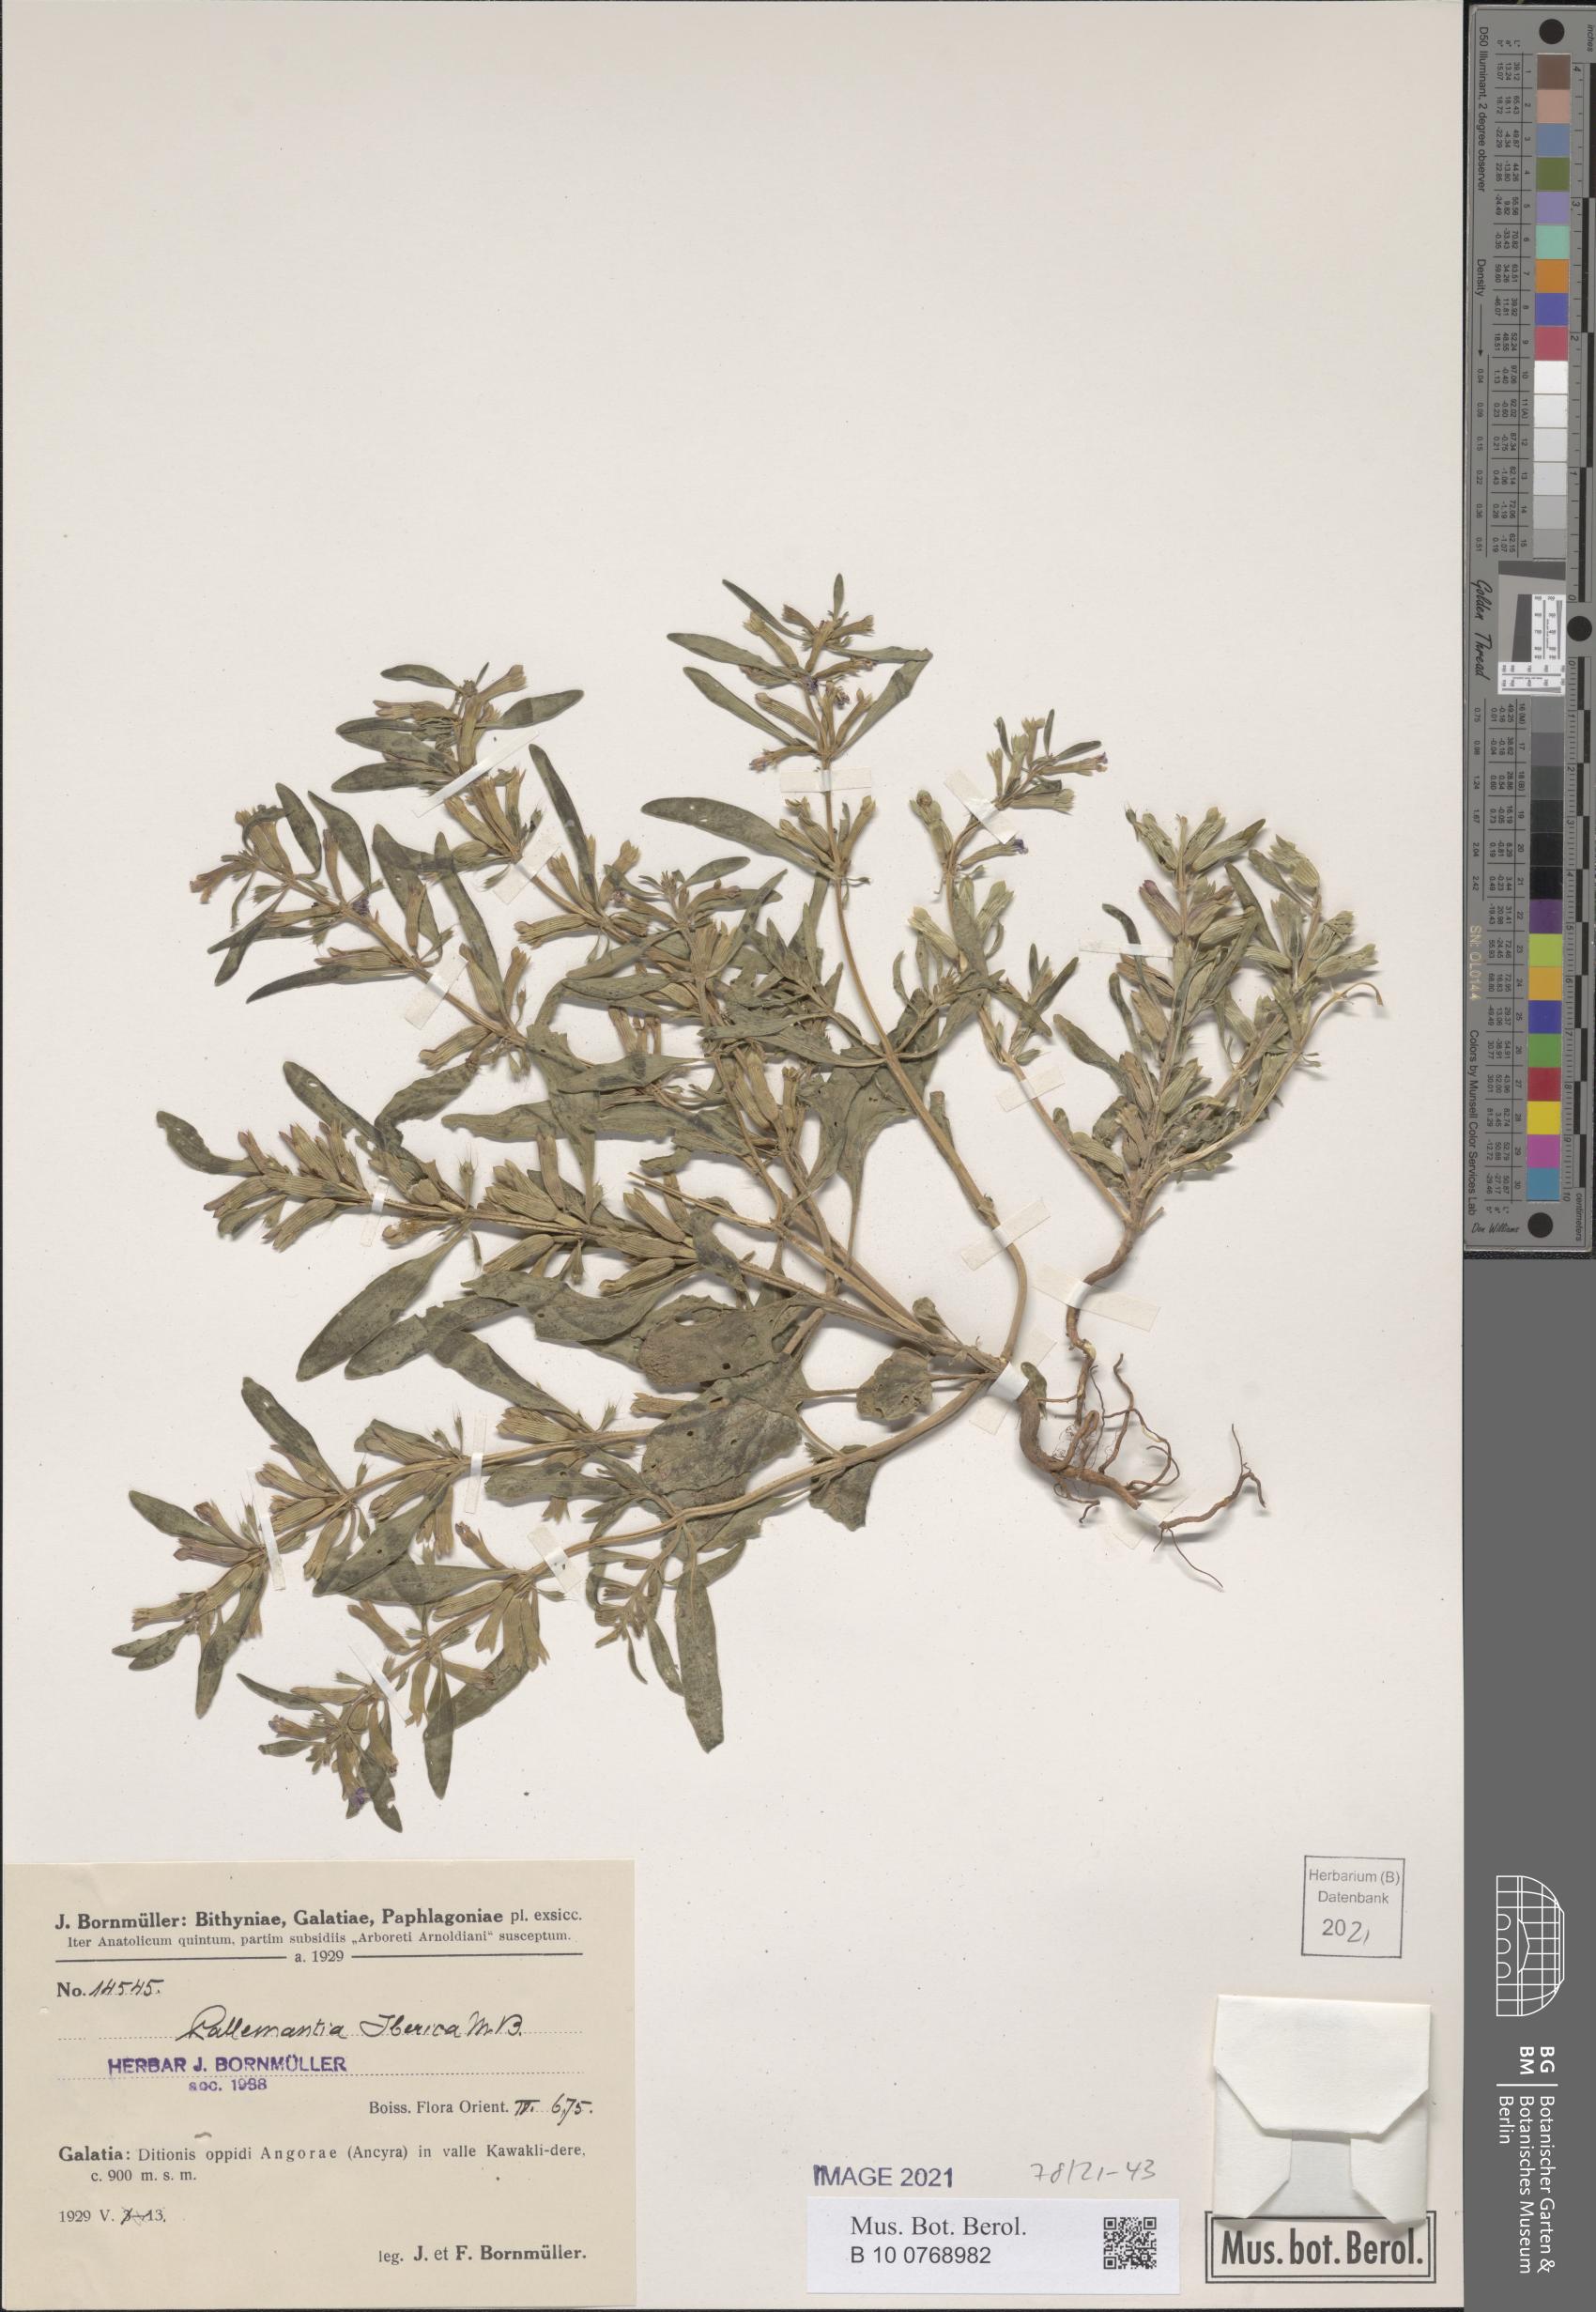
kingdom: Plantae
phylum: Tracheophyta
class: Magnoliopsida
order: Lamiales
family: Lamiaceae
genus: Lallemantia
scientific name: Lallemantia iberica
